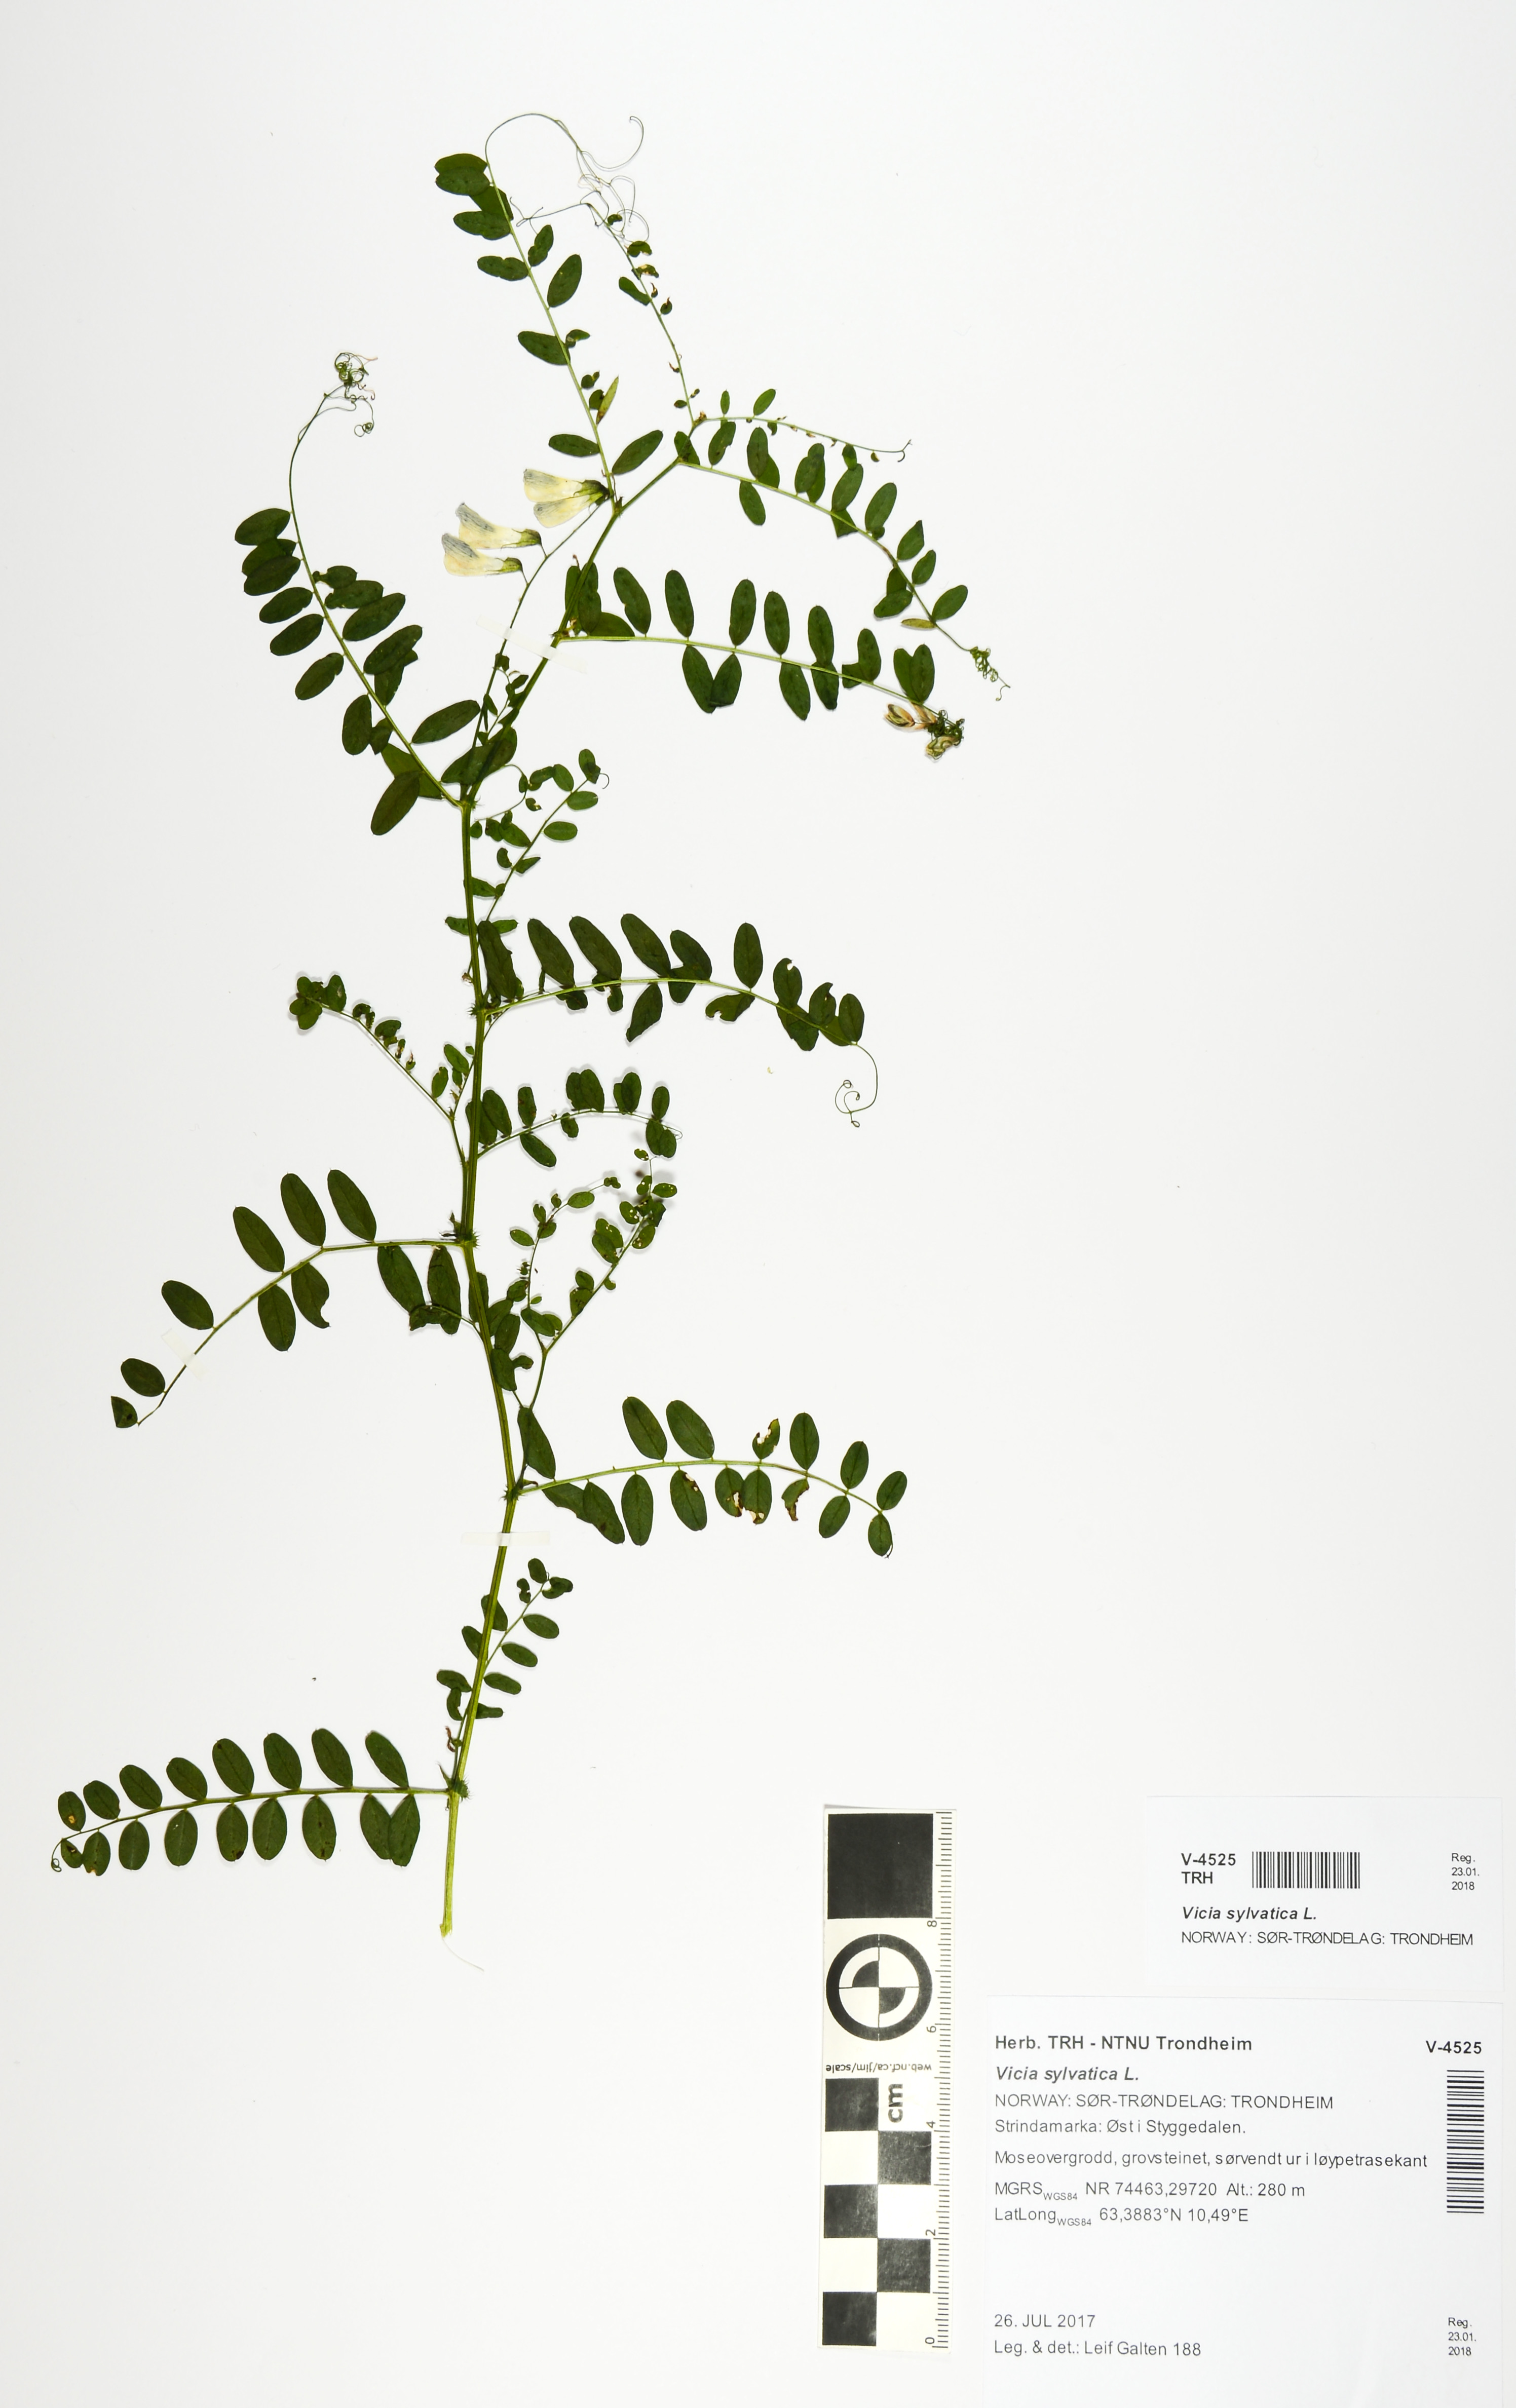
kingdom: Plantae
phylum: Tracheophyta
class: Magnoliopsida
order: Fabales
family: Fabaceae
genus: Vicia
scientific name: Vicia sylvatica
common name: Wood vetch
